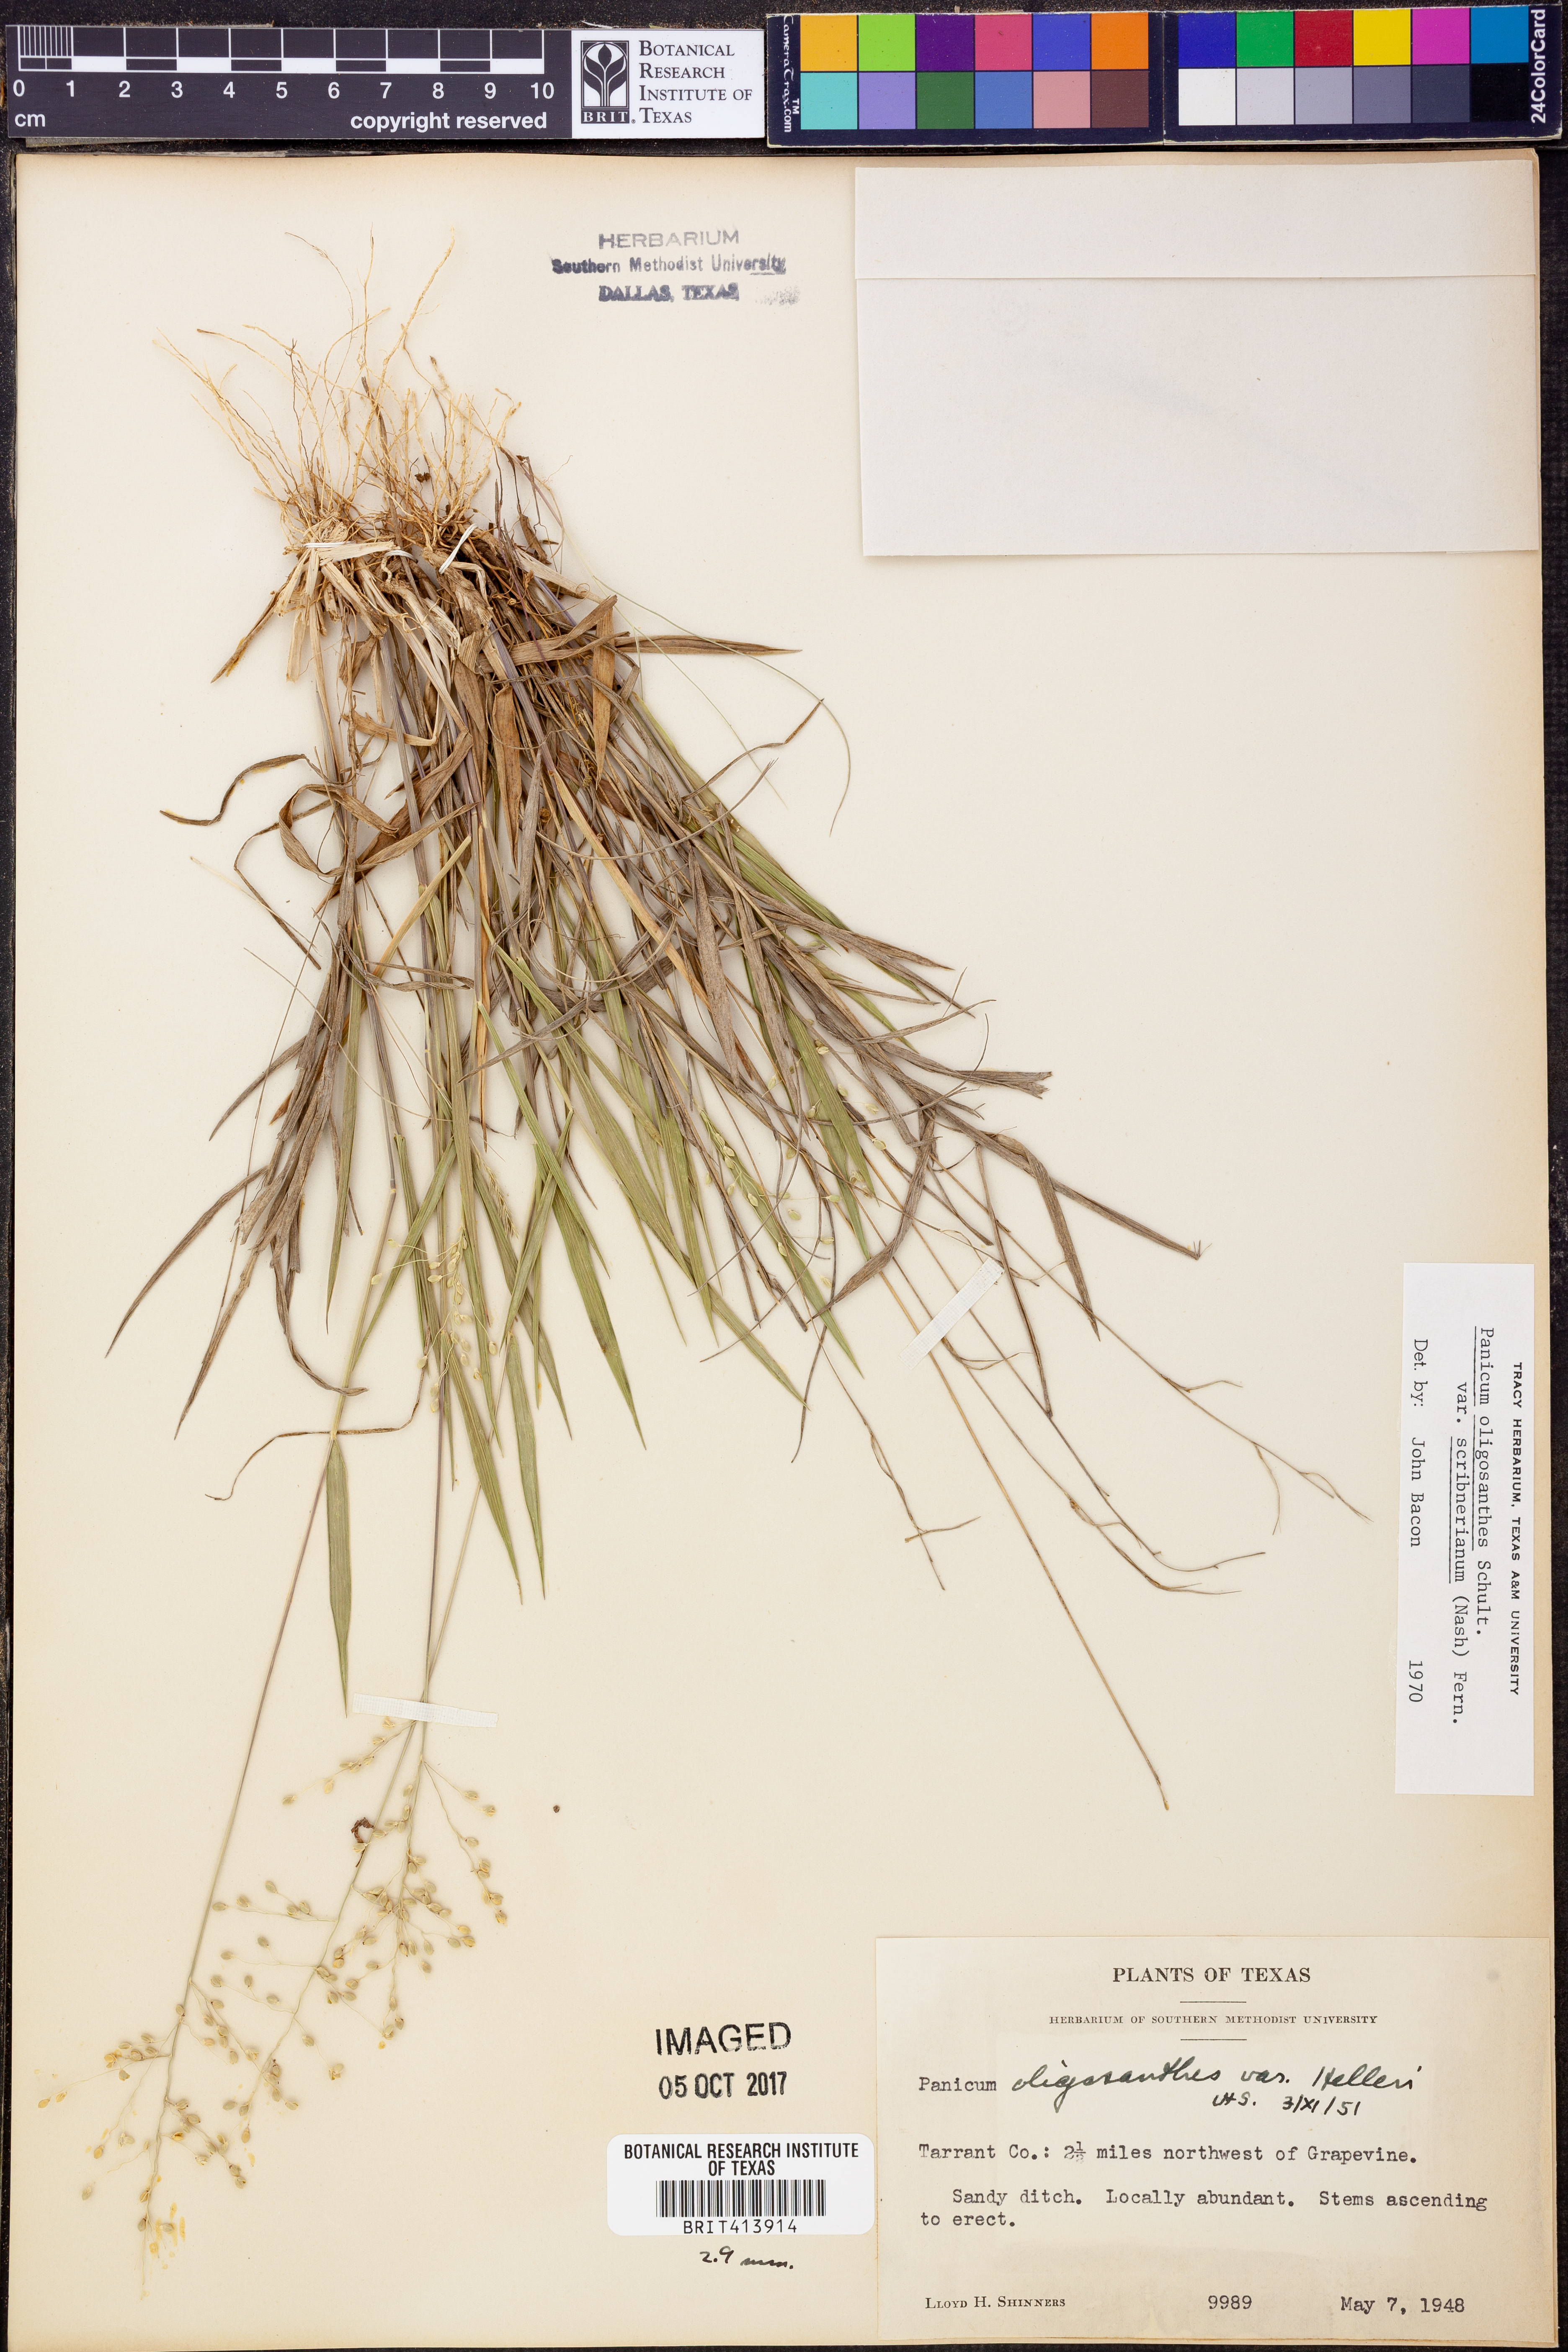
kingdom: Plantae
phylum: Tracheophyta
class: Liliopsida
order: Poales
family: Poaceae
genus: Dichanthelium
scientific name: Dichanthelium scribnerianum
